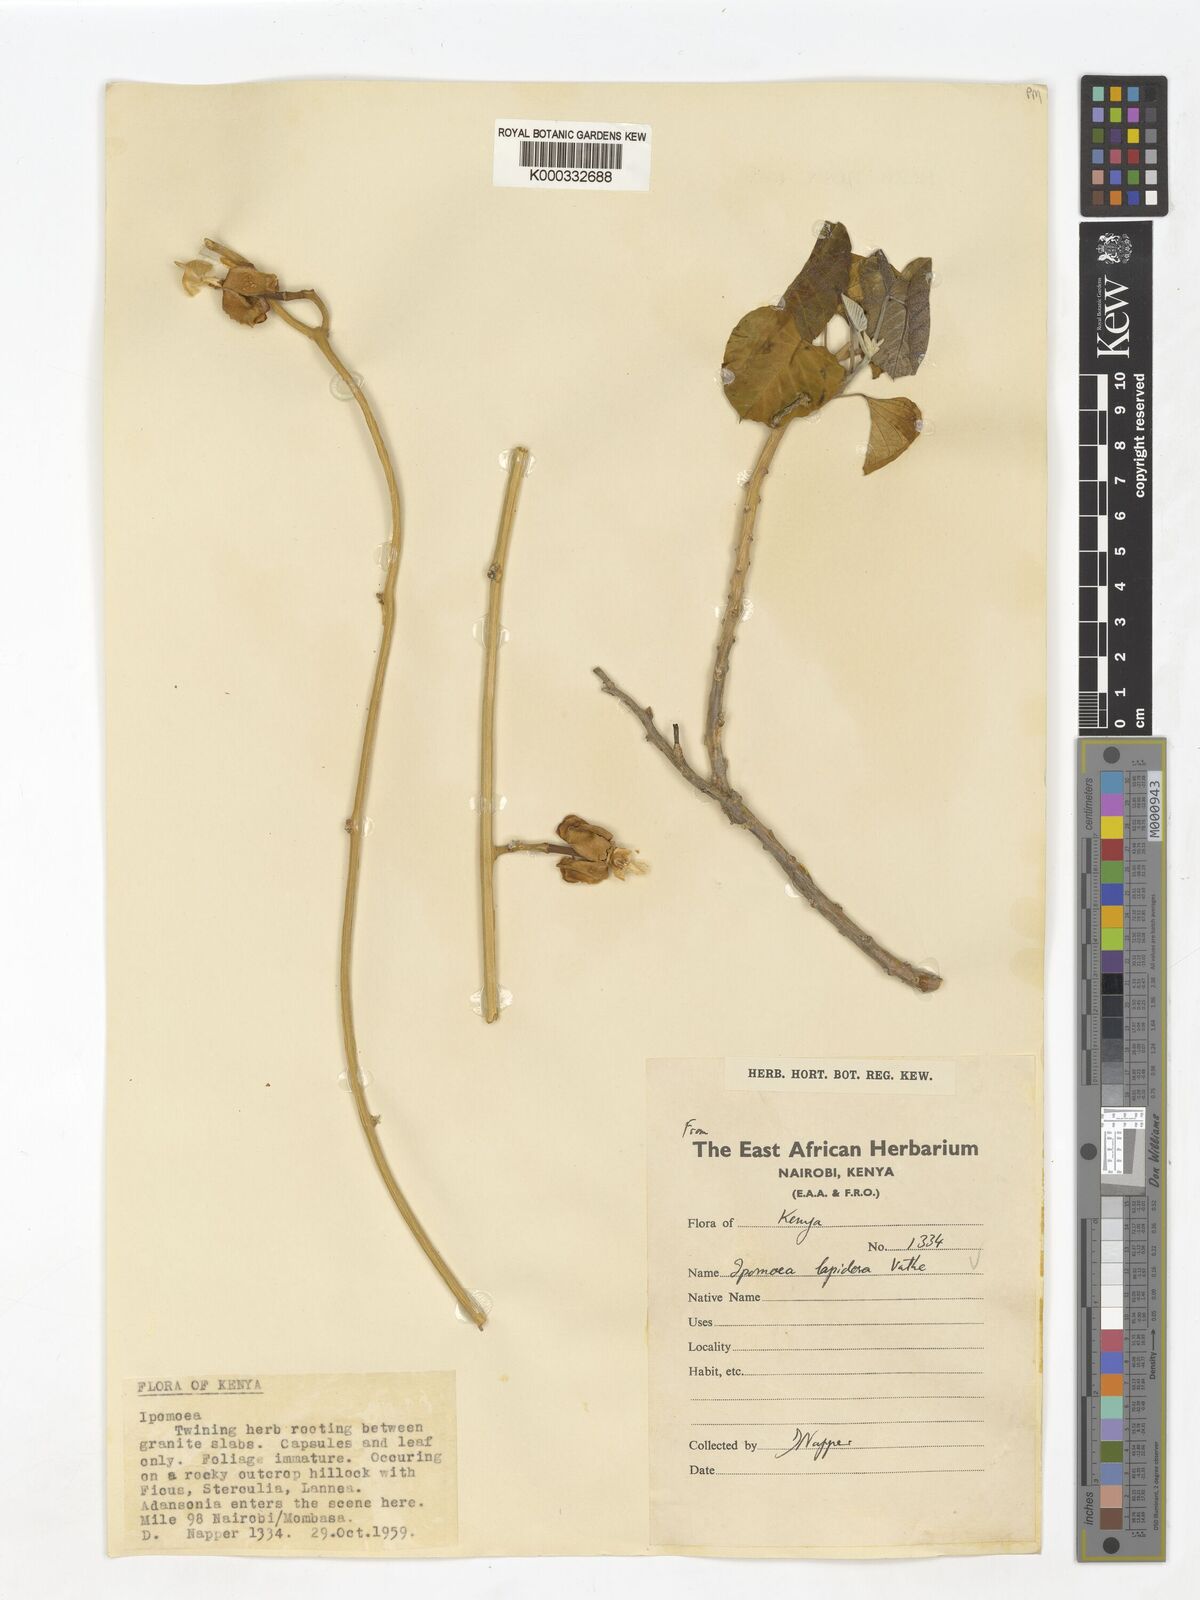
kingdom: Plantae
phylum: Tracheophyta
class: Magnoliopsida
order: Solanales
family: Convolvulaceae
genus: Ipomoea
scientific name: Ipomoea lapidosa
